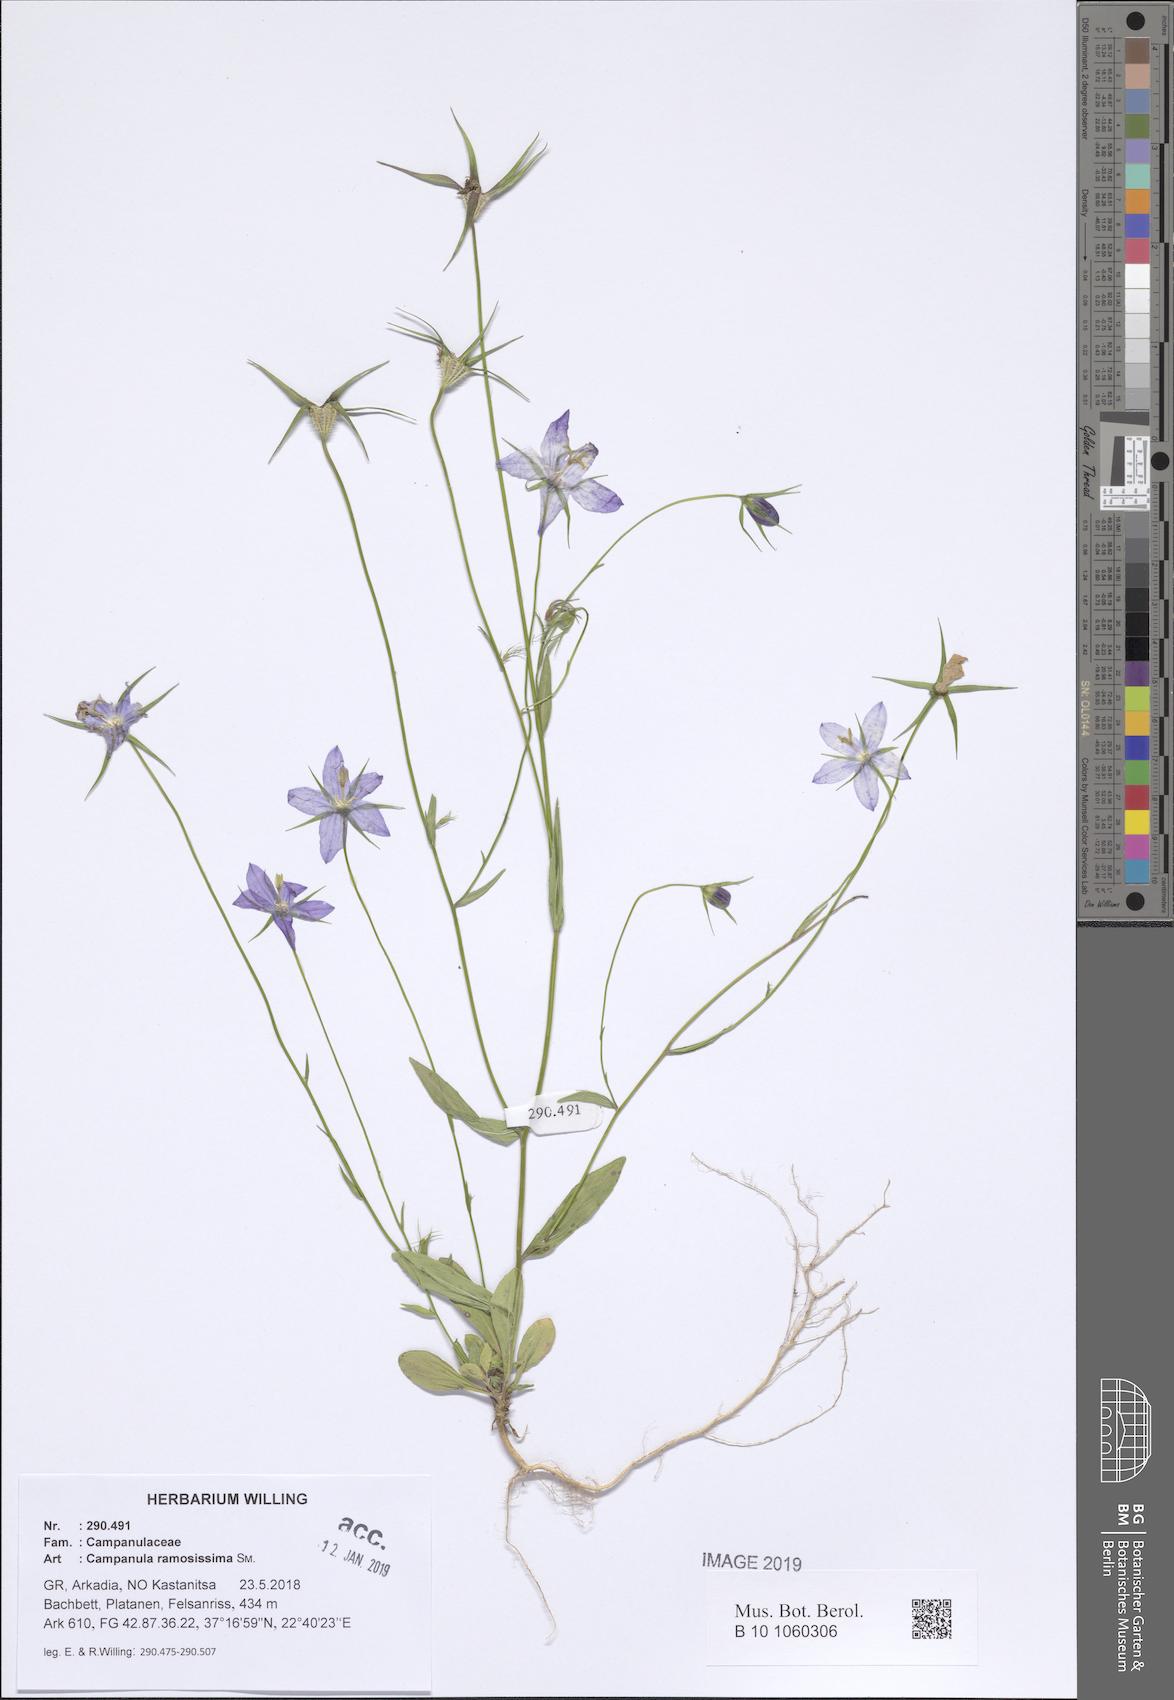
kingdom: Plantae
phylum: Tracheophyta
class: Magnoliopsida
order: Asterales
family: Campanulaceae
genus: Campanula
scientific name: Campanula ramosissima
